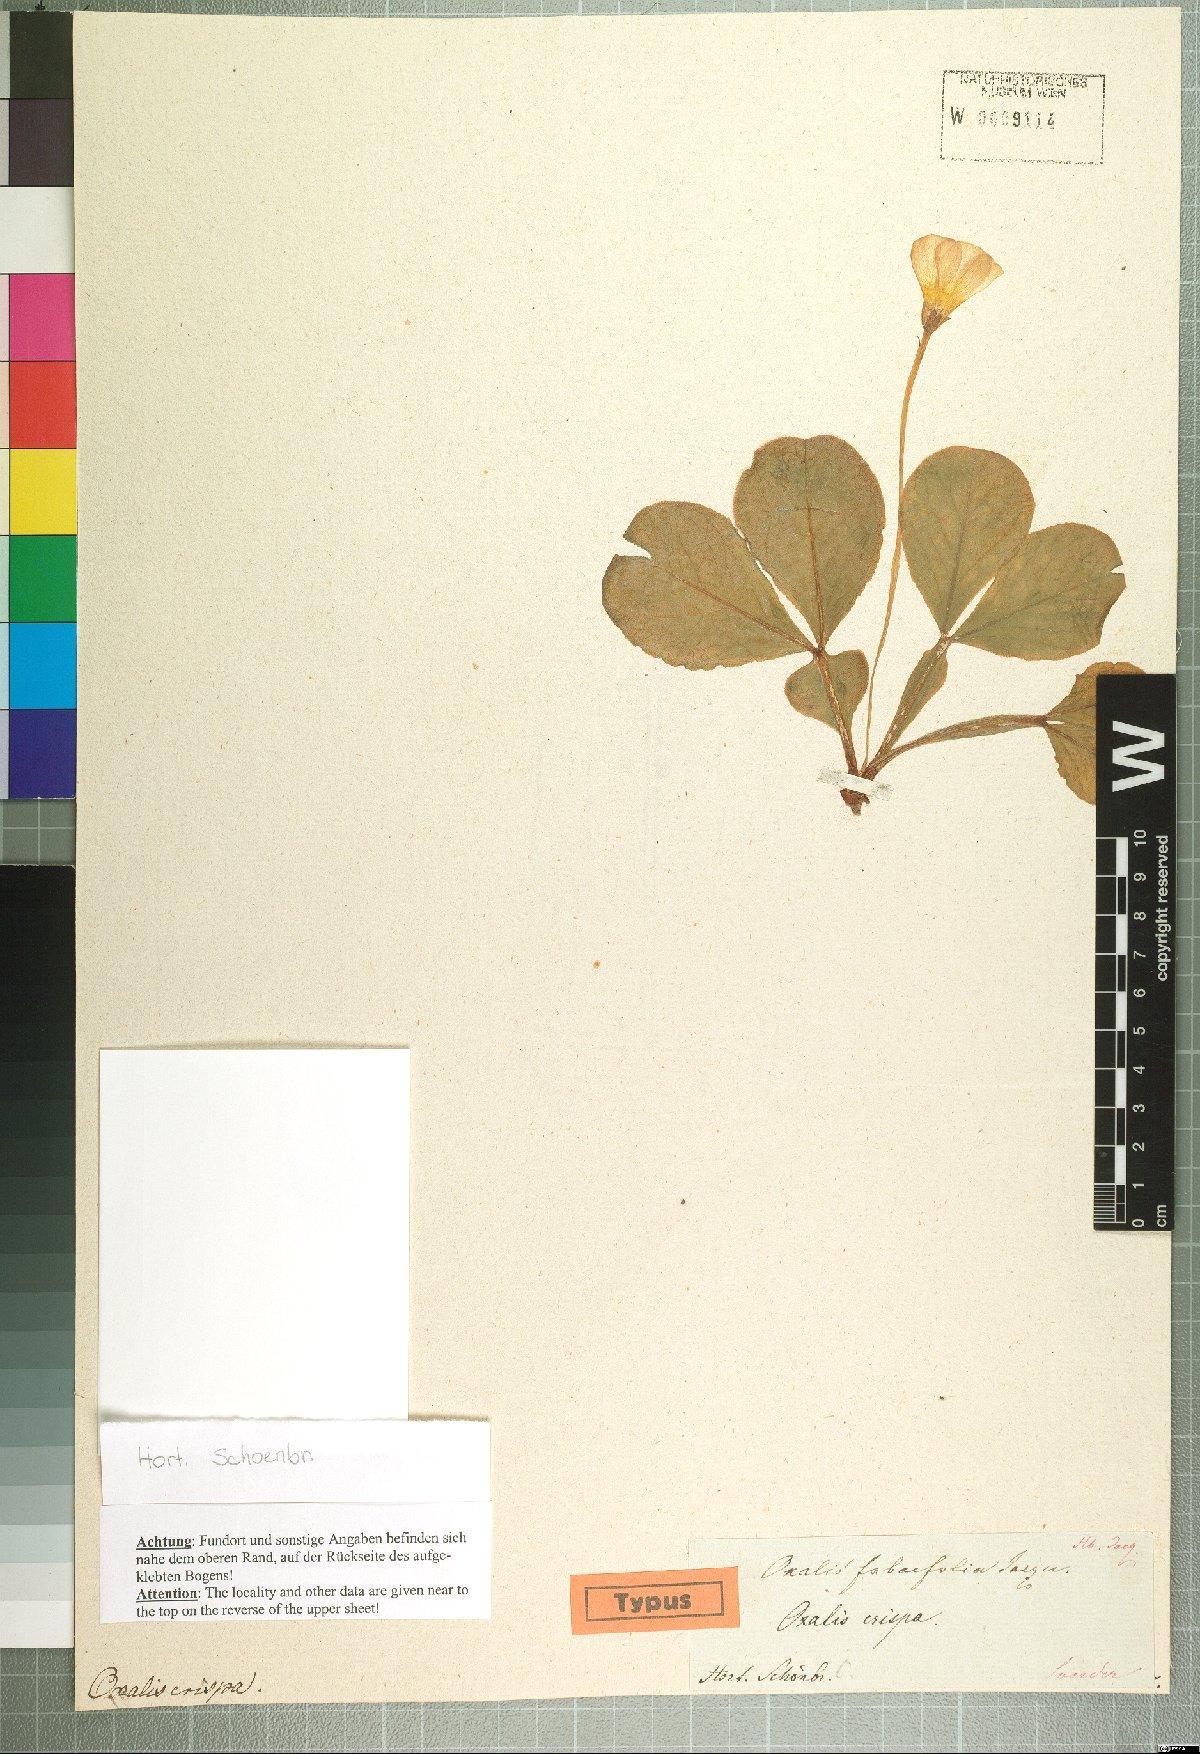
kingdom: Plantae
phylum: Tracheophyta
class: Magnoliopsida
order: Oxalidales
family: Oxalidaceae
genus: Oxalis
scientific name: Oxalis flava
